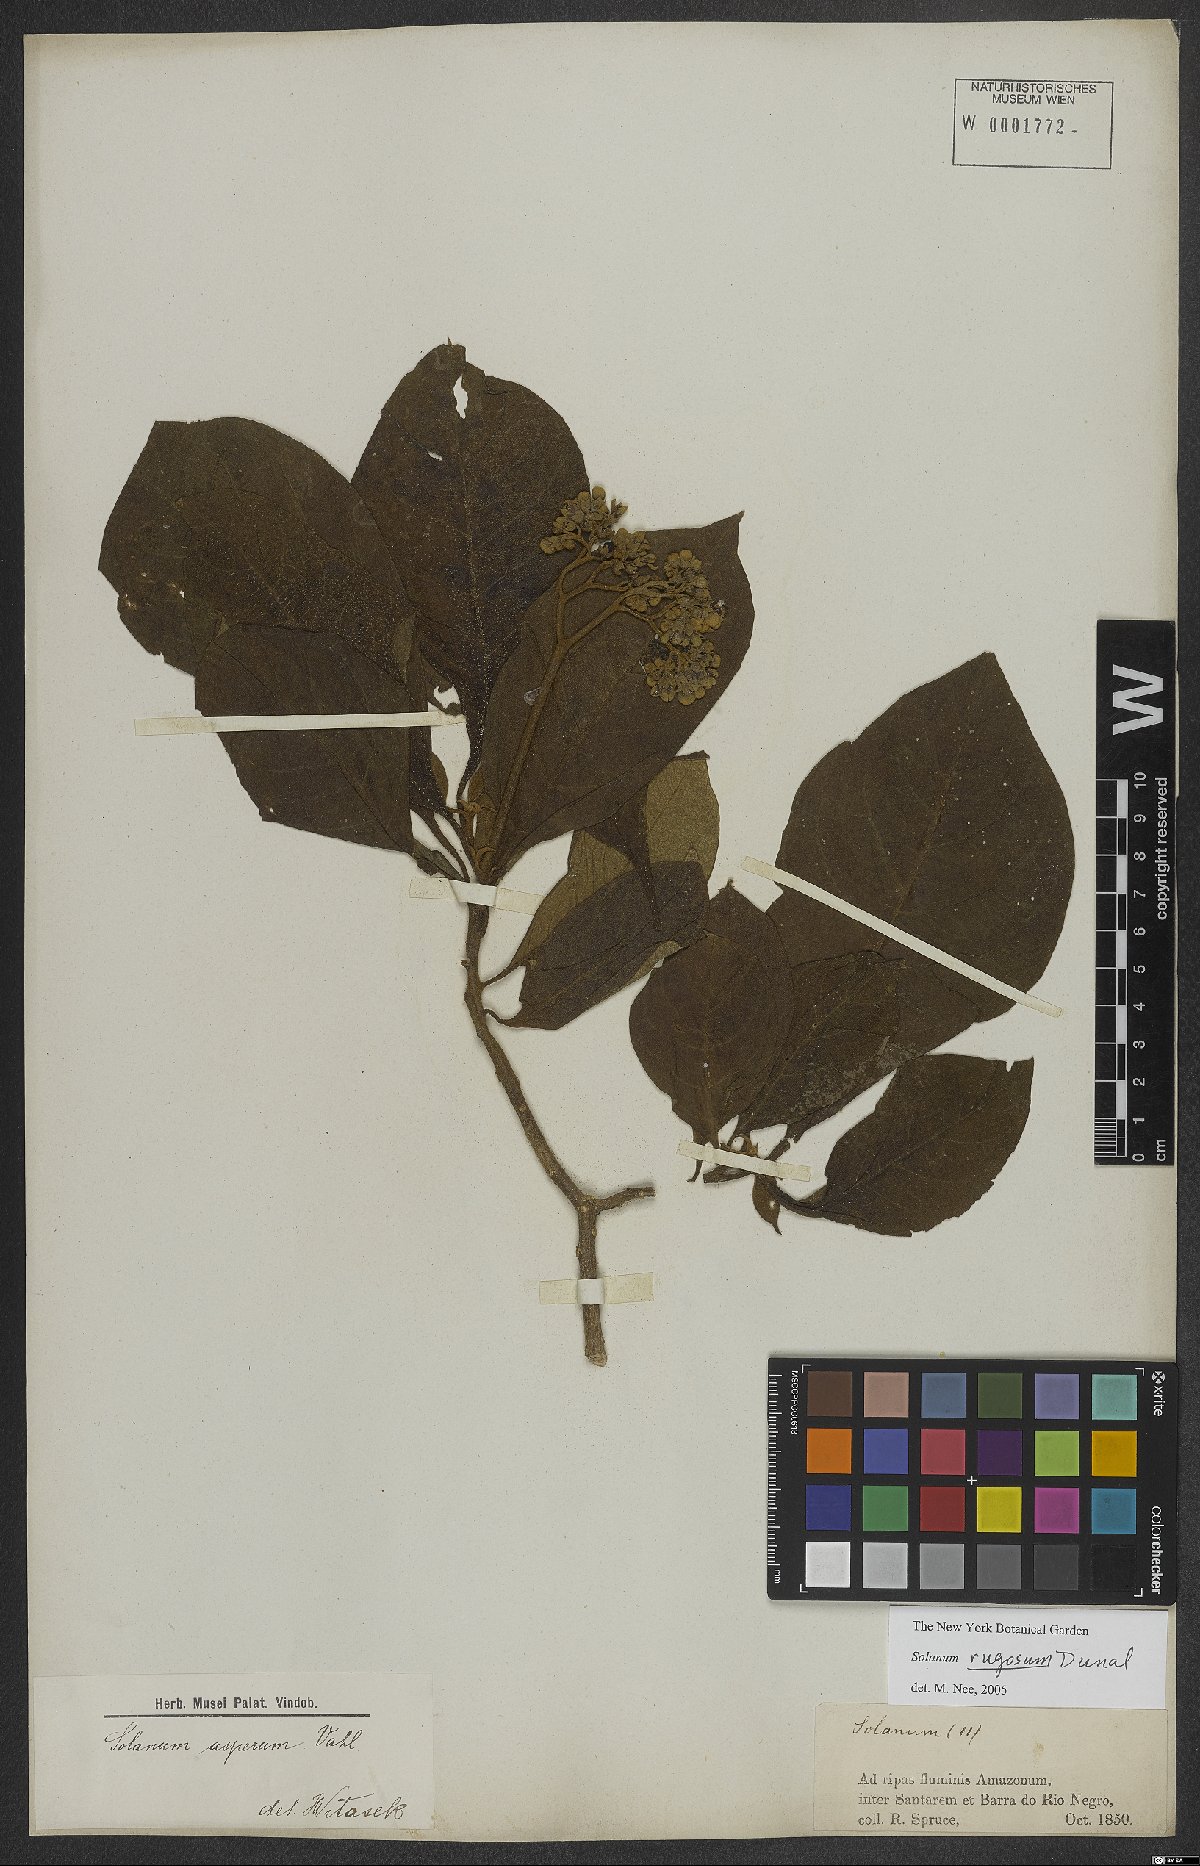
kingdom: Plantae
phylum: Tracheophyta
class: Magnoliopsida
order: Solanales
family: Solanaceae
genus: Solanum
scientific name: Solanum rugosum
